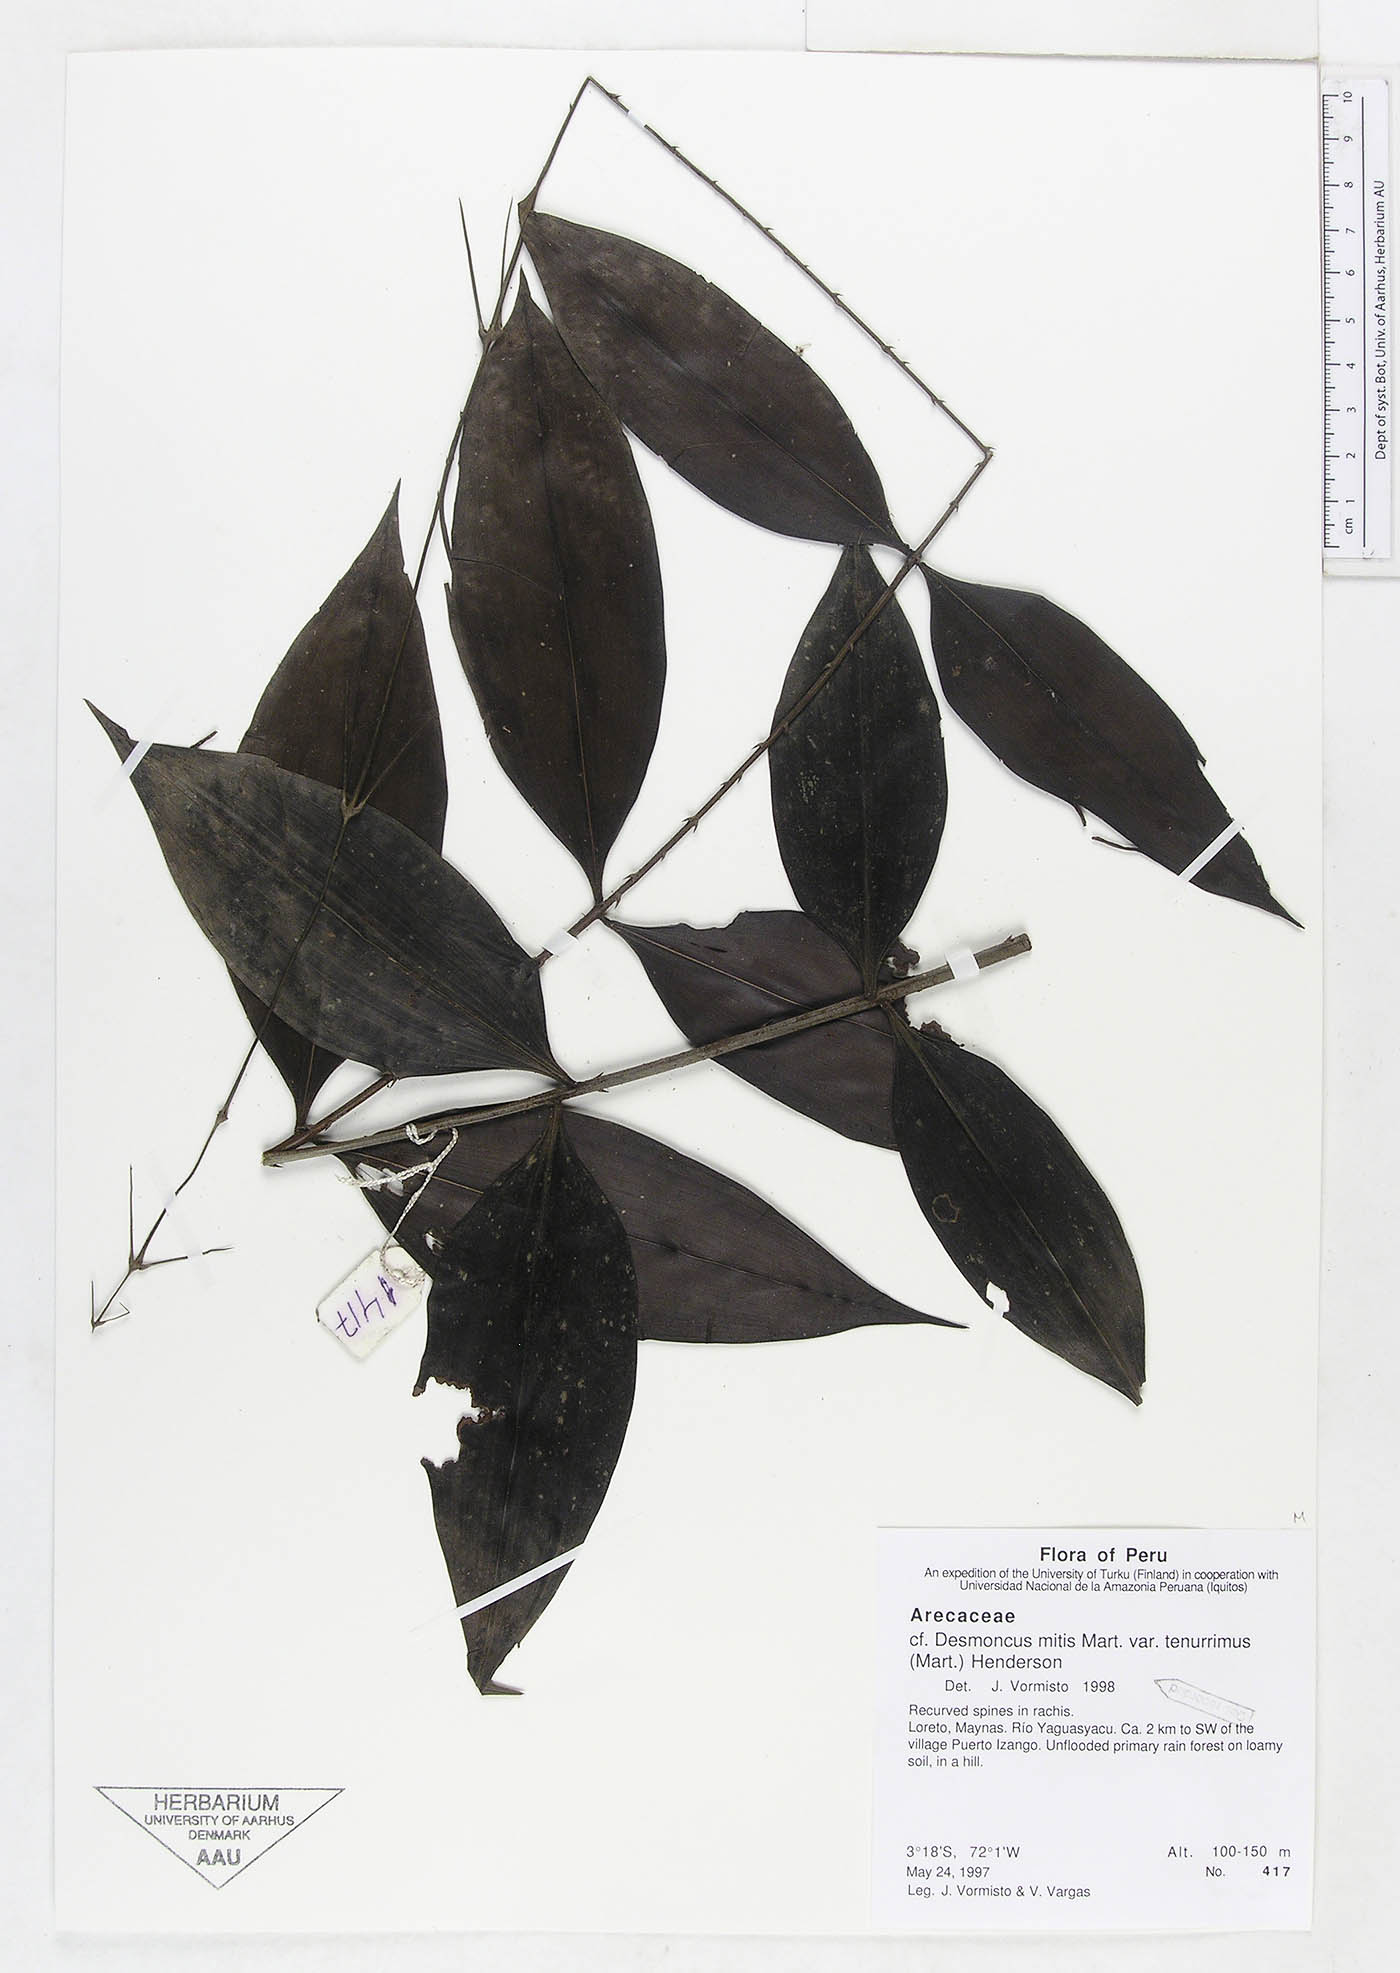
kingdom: Plantae
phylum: Tracheophyta
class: Liliopsida
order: Arecales
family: Arecaceae
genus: Desmoncus
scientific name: Desmoncus vacivus
